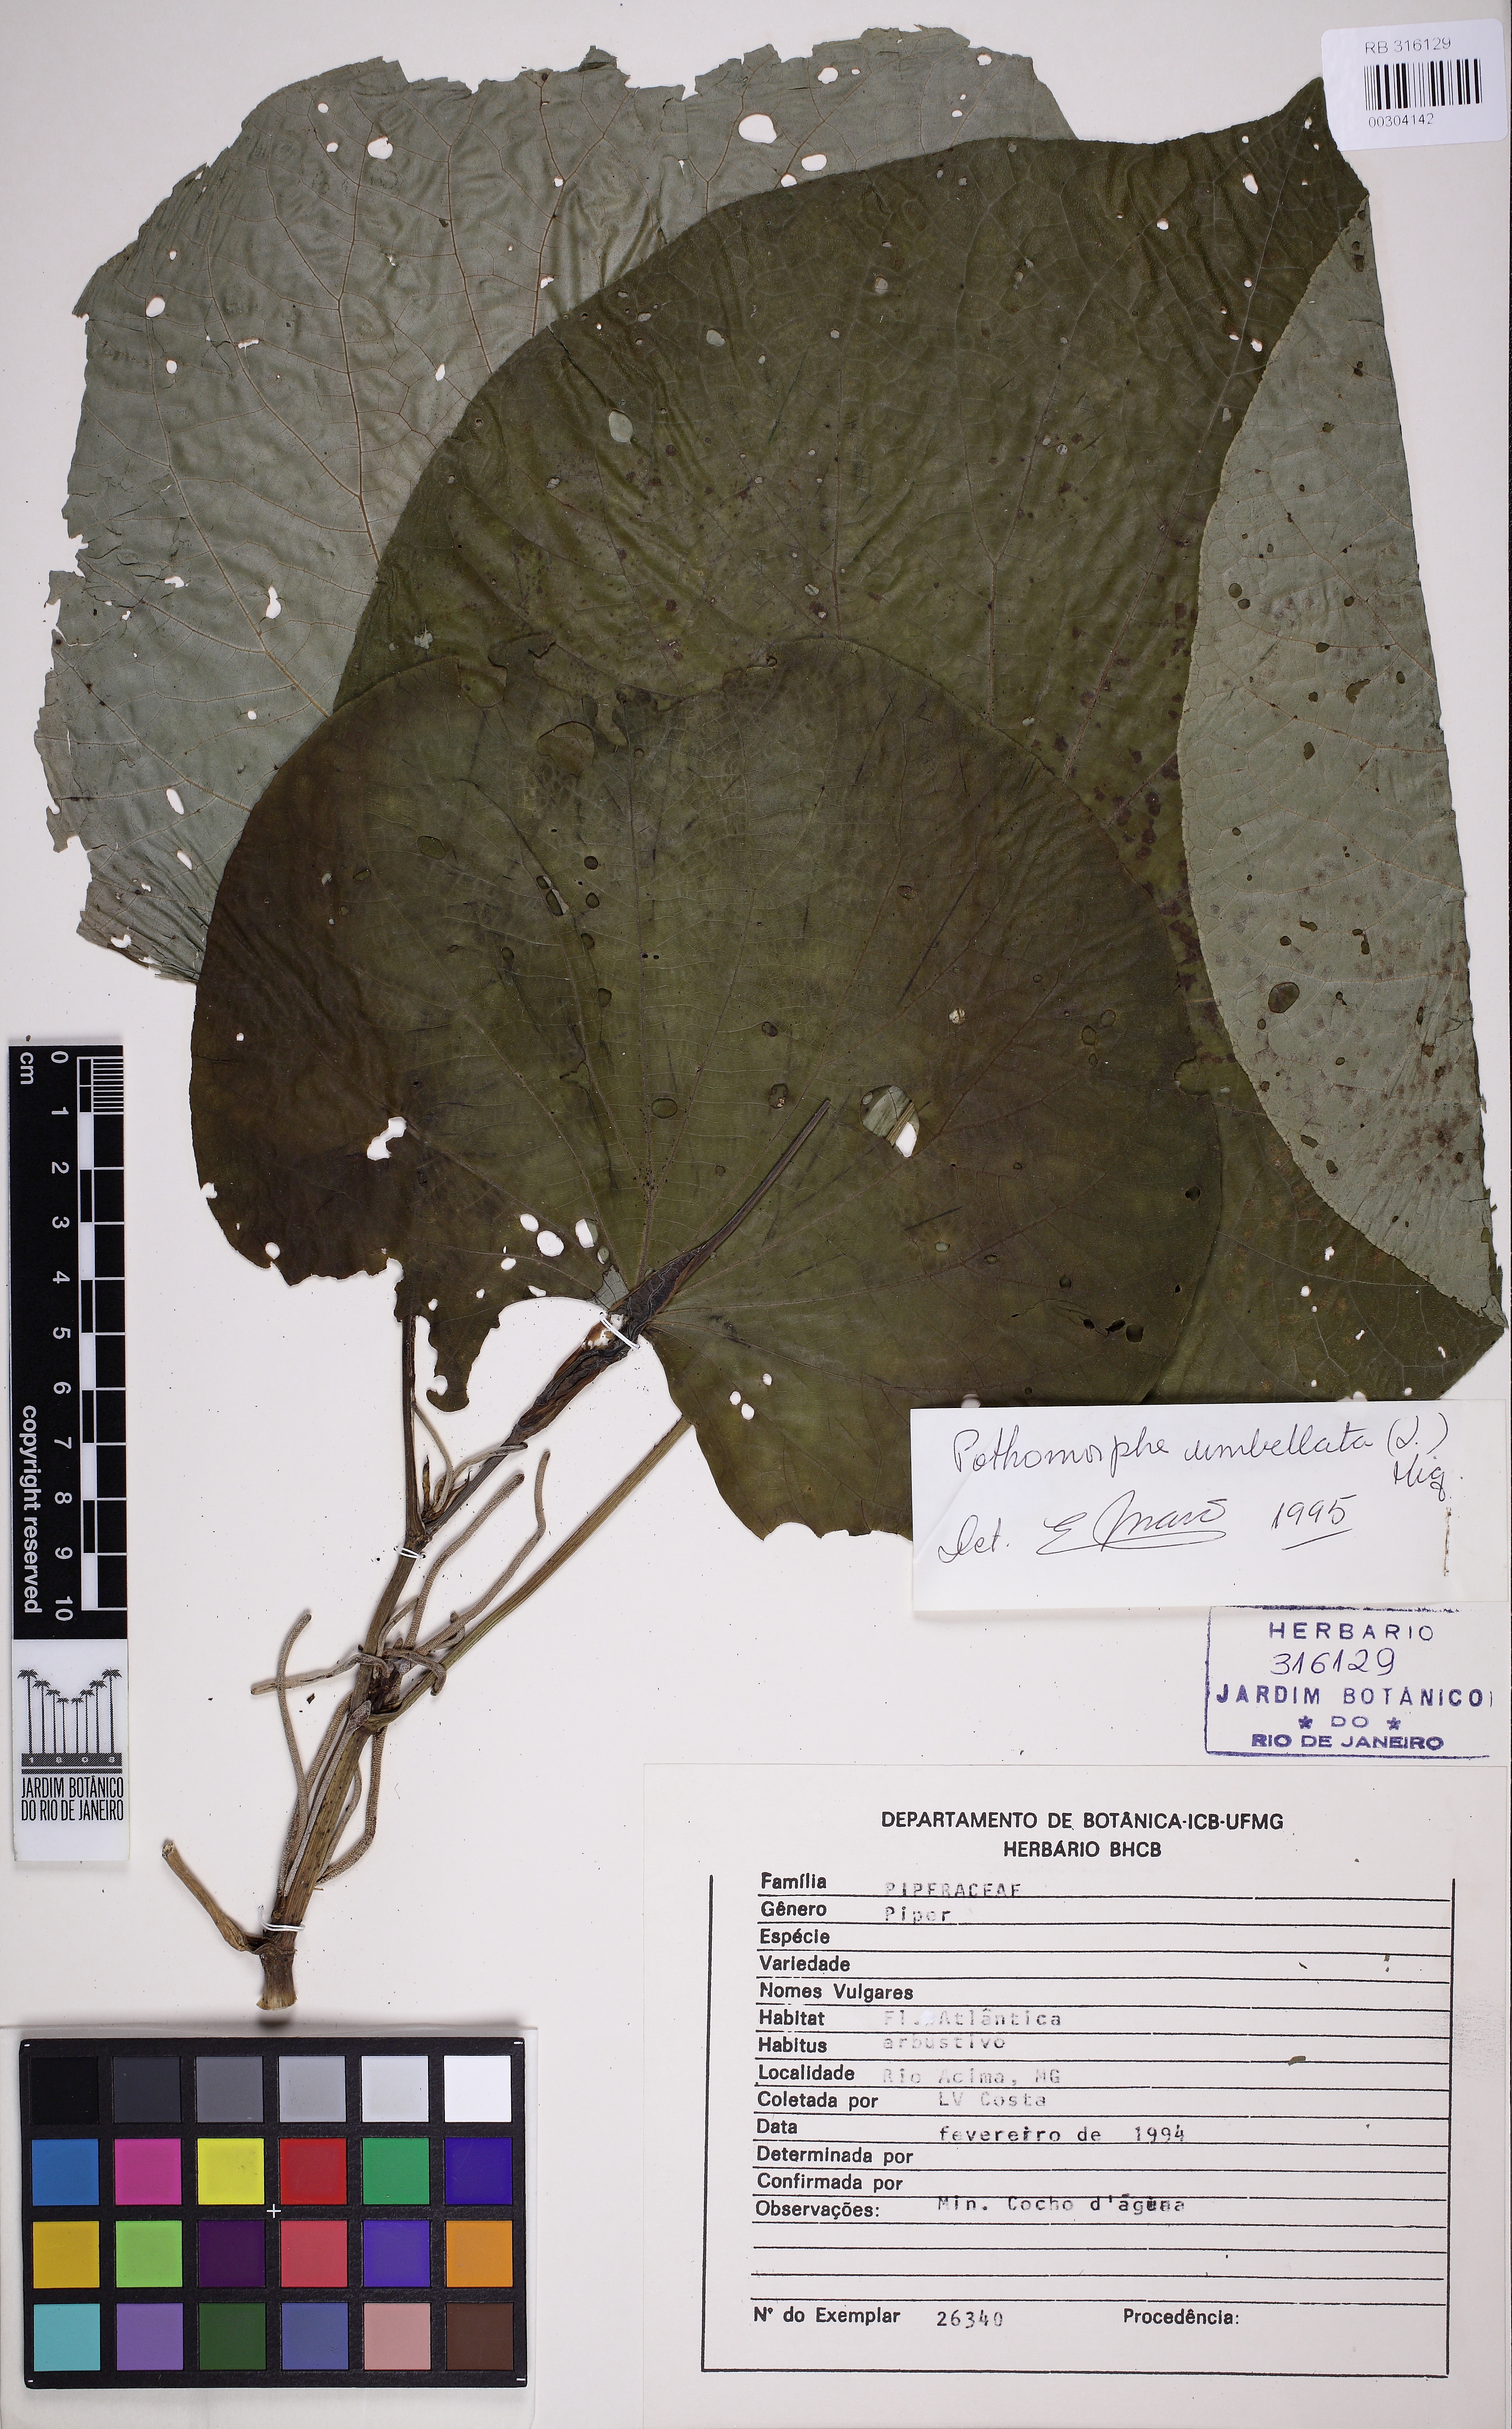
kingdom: Plantae
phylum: Tracheophyta
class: Magnoliopsida
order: Piperales
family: Piperaceae
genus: Piper
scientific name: Piper umbellatum
